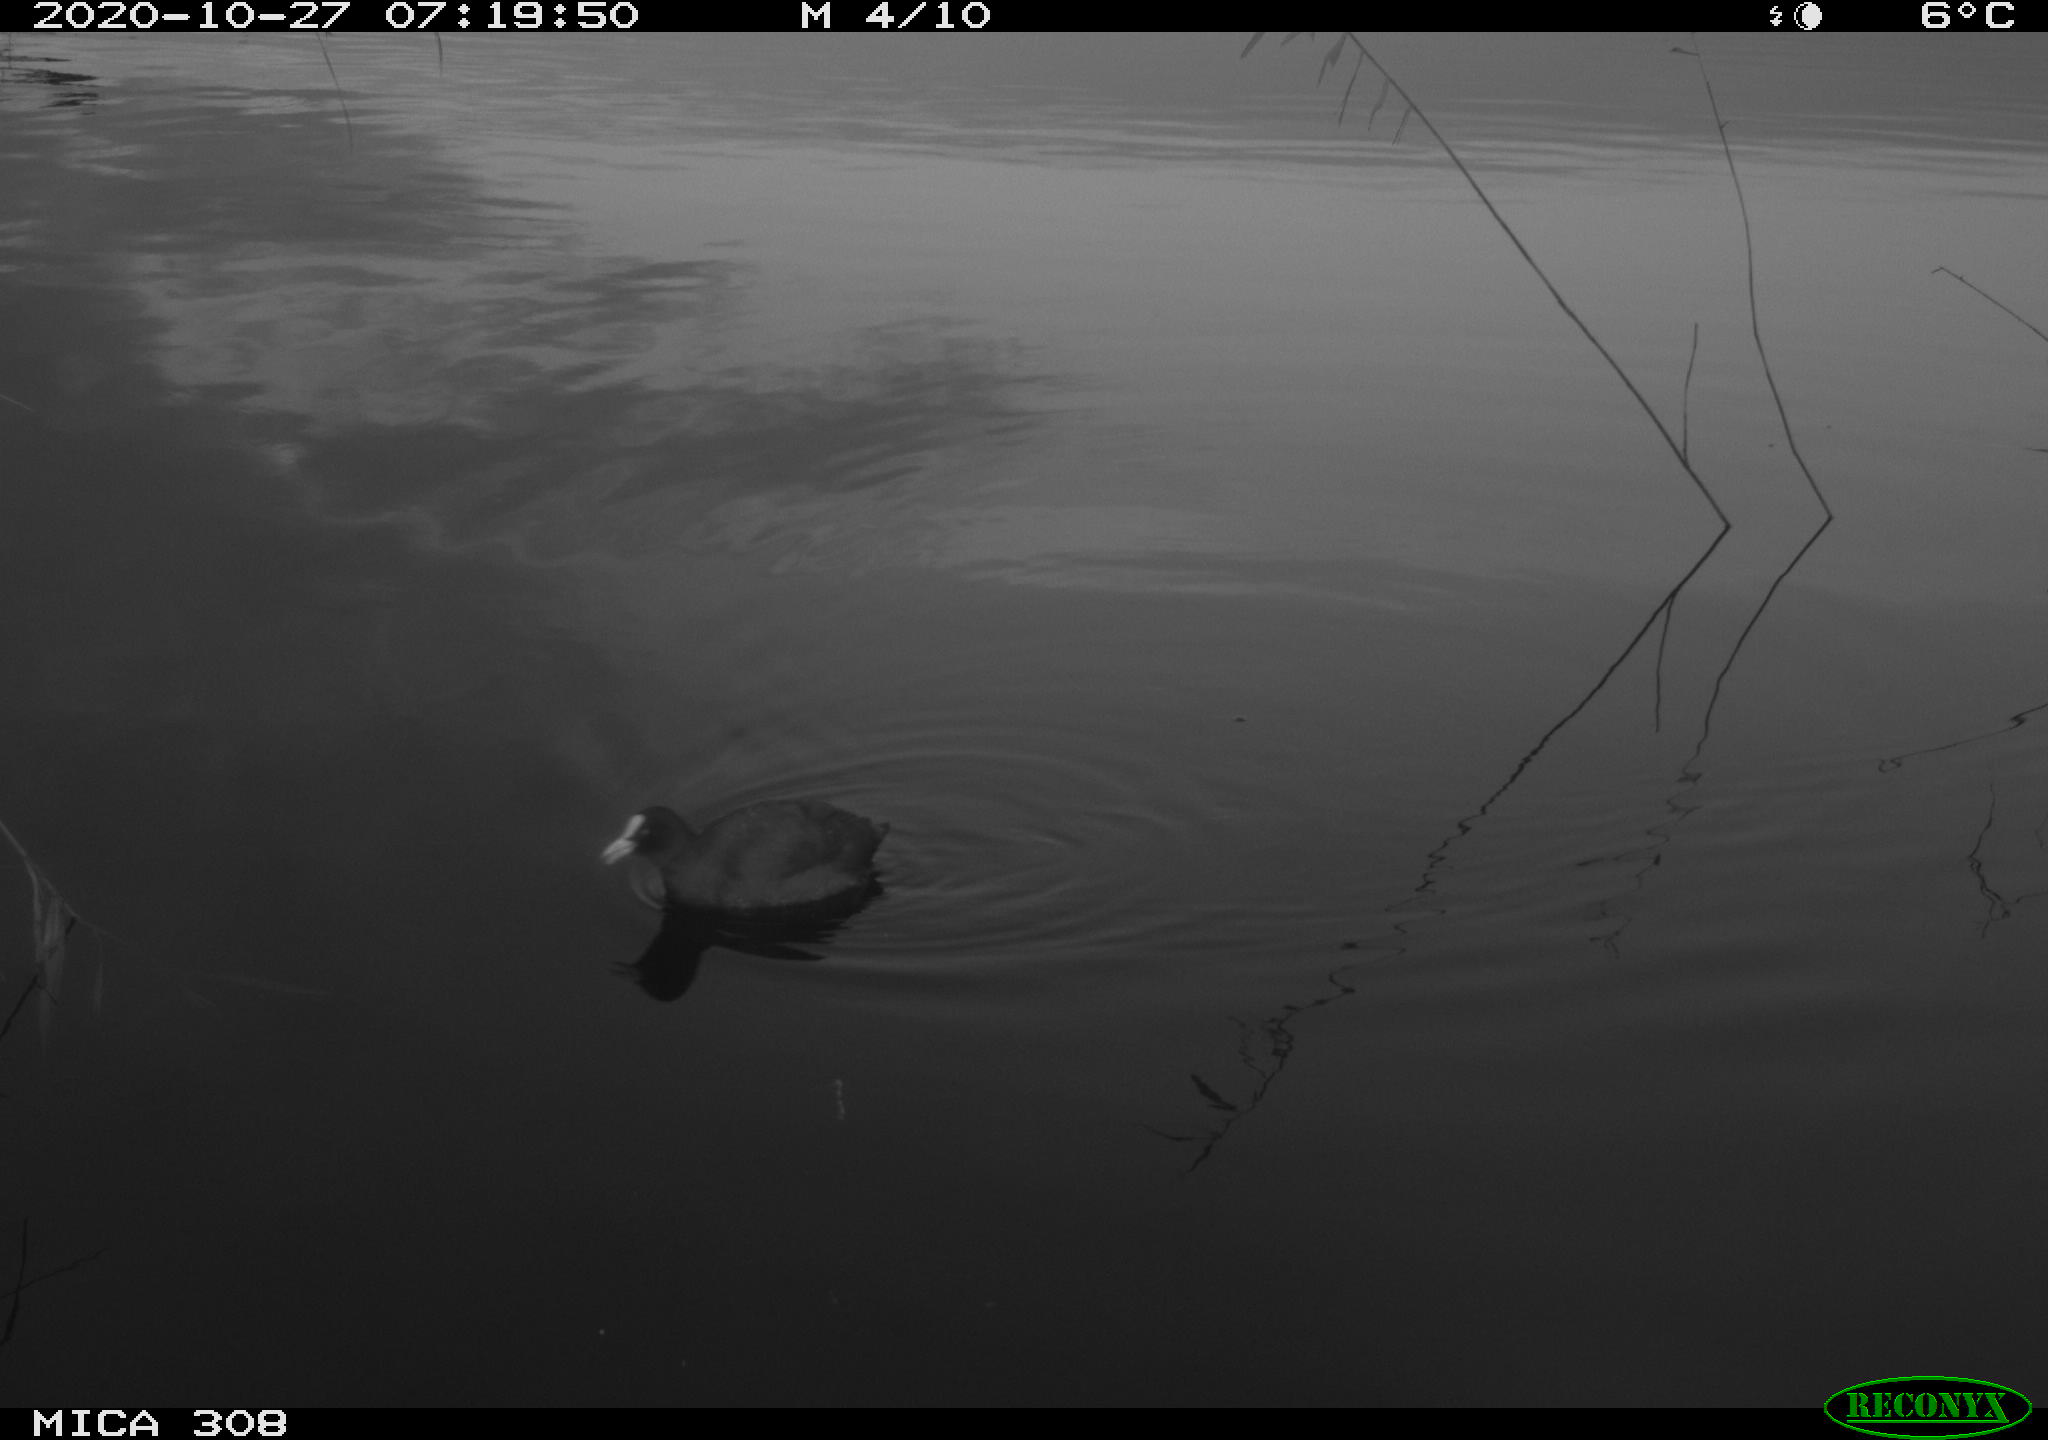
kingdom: Animalia
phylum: Chordata
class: Aves
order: Gruiformes
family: Rallidae
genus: Gallinula
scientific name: Gallinula chloropus
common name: Common moorhen
